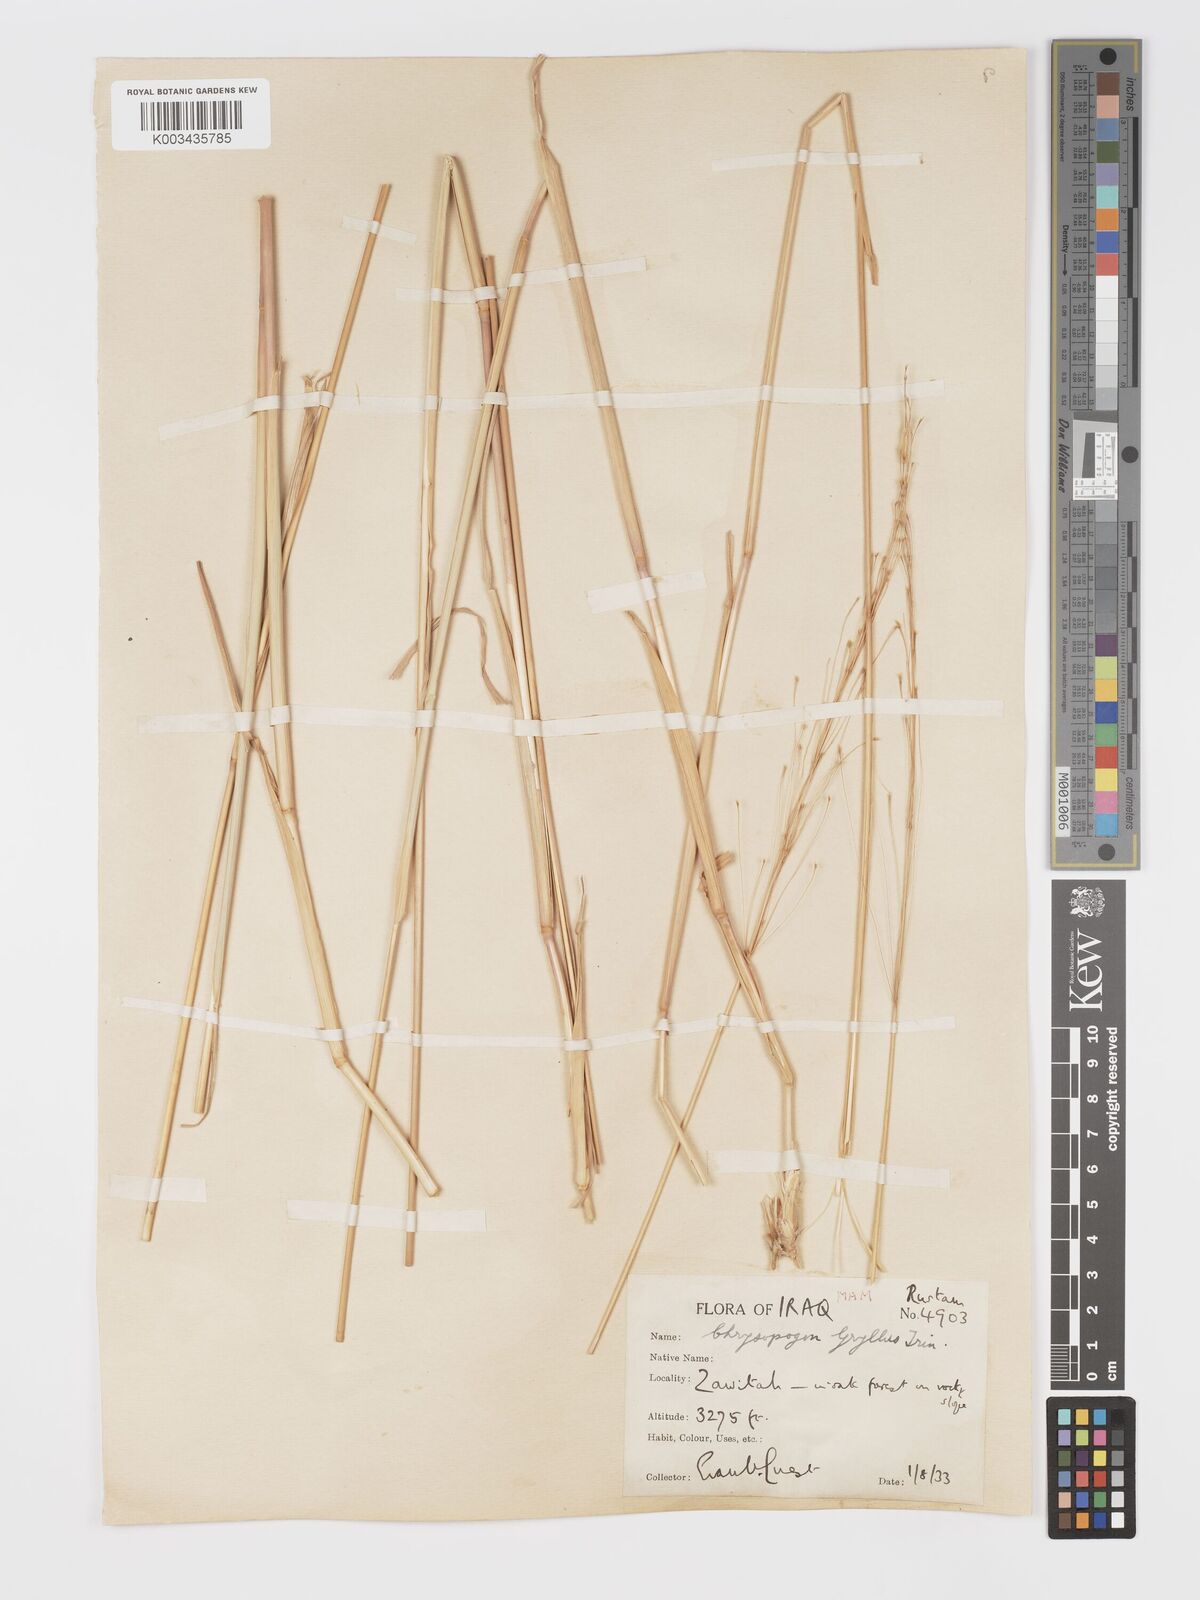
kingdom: Plantae
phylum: Tracheophyta
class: Liliopsida
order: Poales
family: Poaceae
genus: Chrysopogon
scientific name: Chrysopogon gryllus
